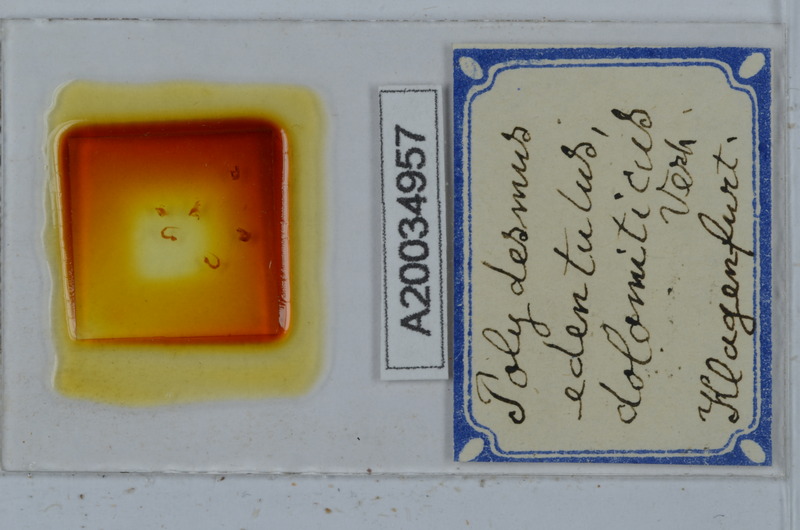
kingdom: Animalia
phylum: Arthropoda
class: Diplopoda
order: Polydesmida
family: Polydesmidae
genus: Polydesmus
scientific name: Polydesmus edentulus
